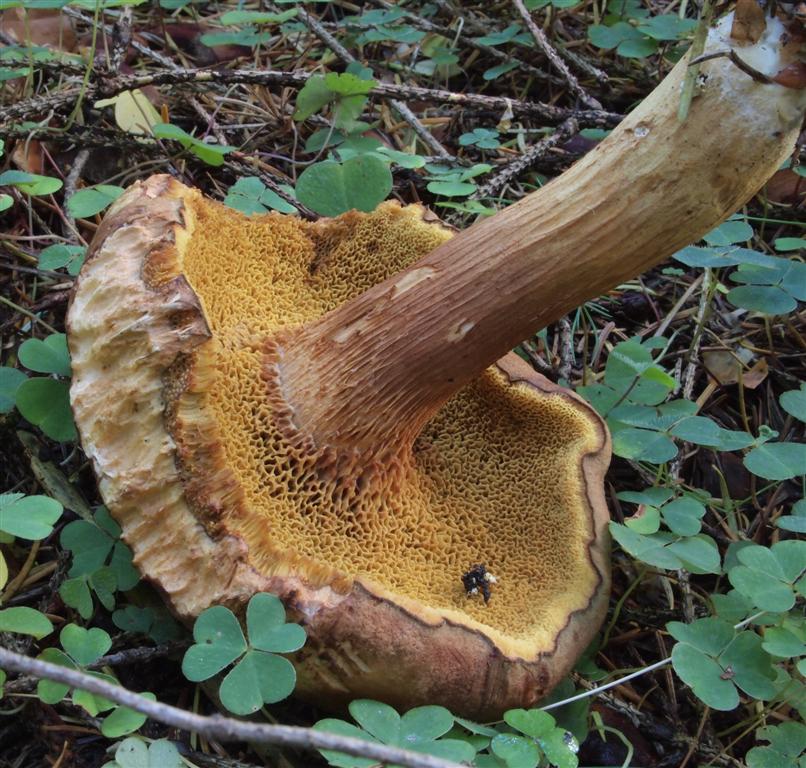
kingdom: Fungi
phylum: Basidiomycota
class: Agaricomycetes
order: Boletales
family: Boletaceae
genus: Xerocomus
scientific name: Xerocomus ferrugineus
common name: vaskeskinds-rørhat
